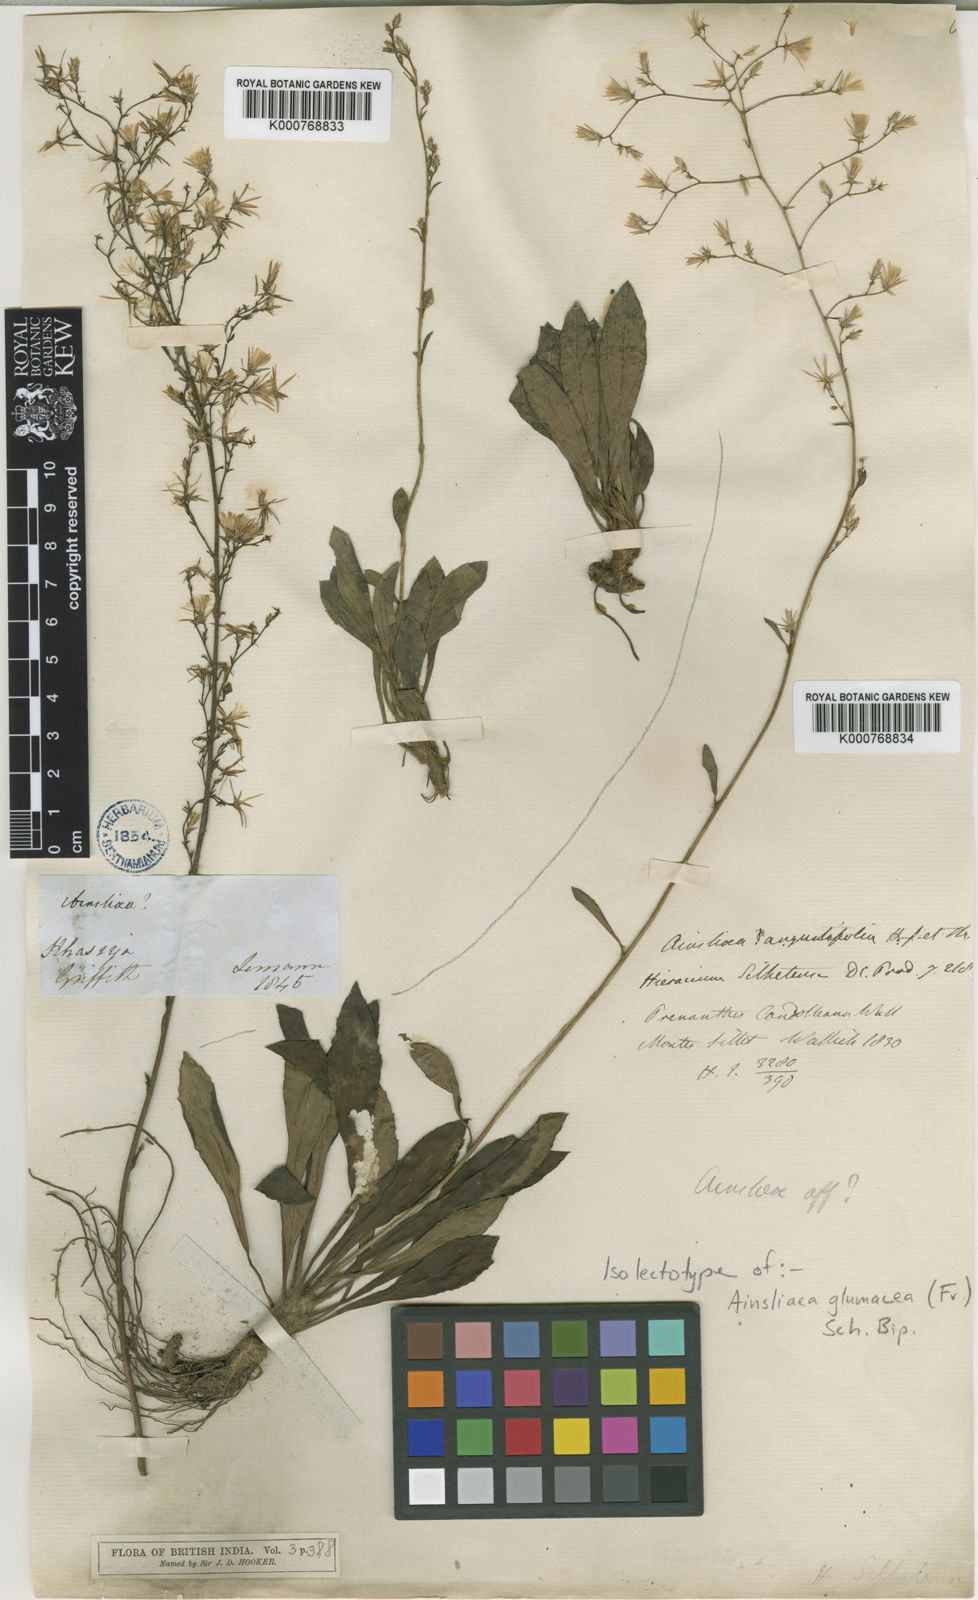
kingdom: Plantae
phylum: Tracheophyta
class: Magnoliopsida
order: Asterales
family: Asteraceae
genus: Ainsliaea
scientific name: Ainsliaea angustifolia
